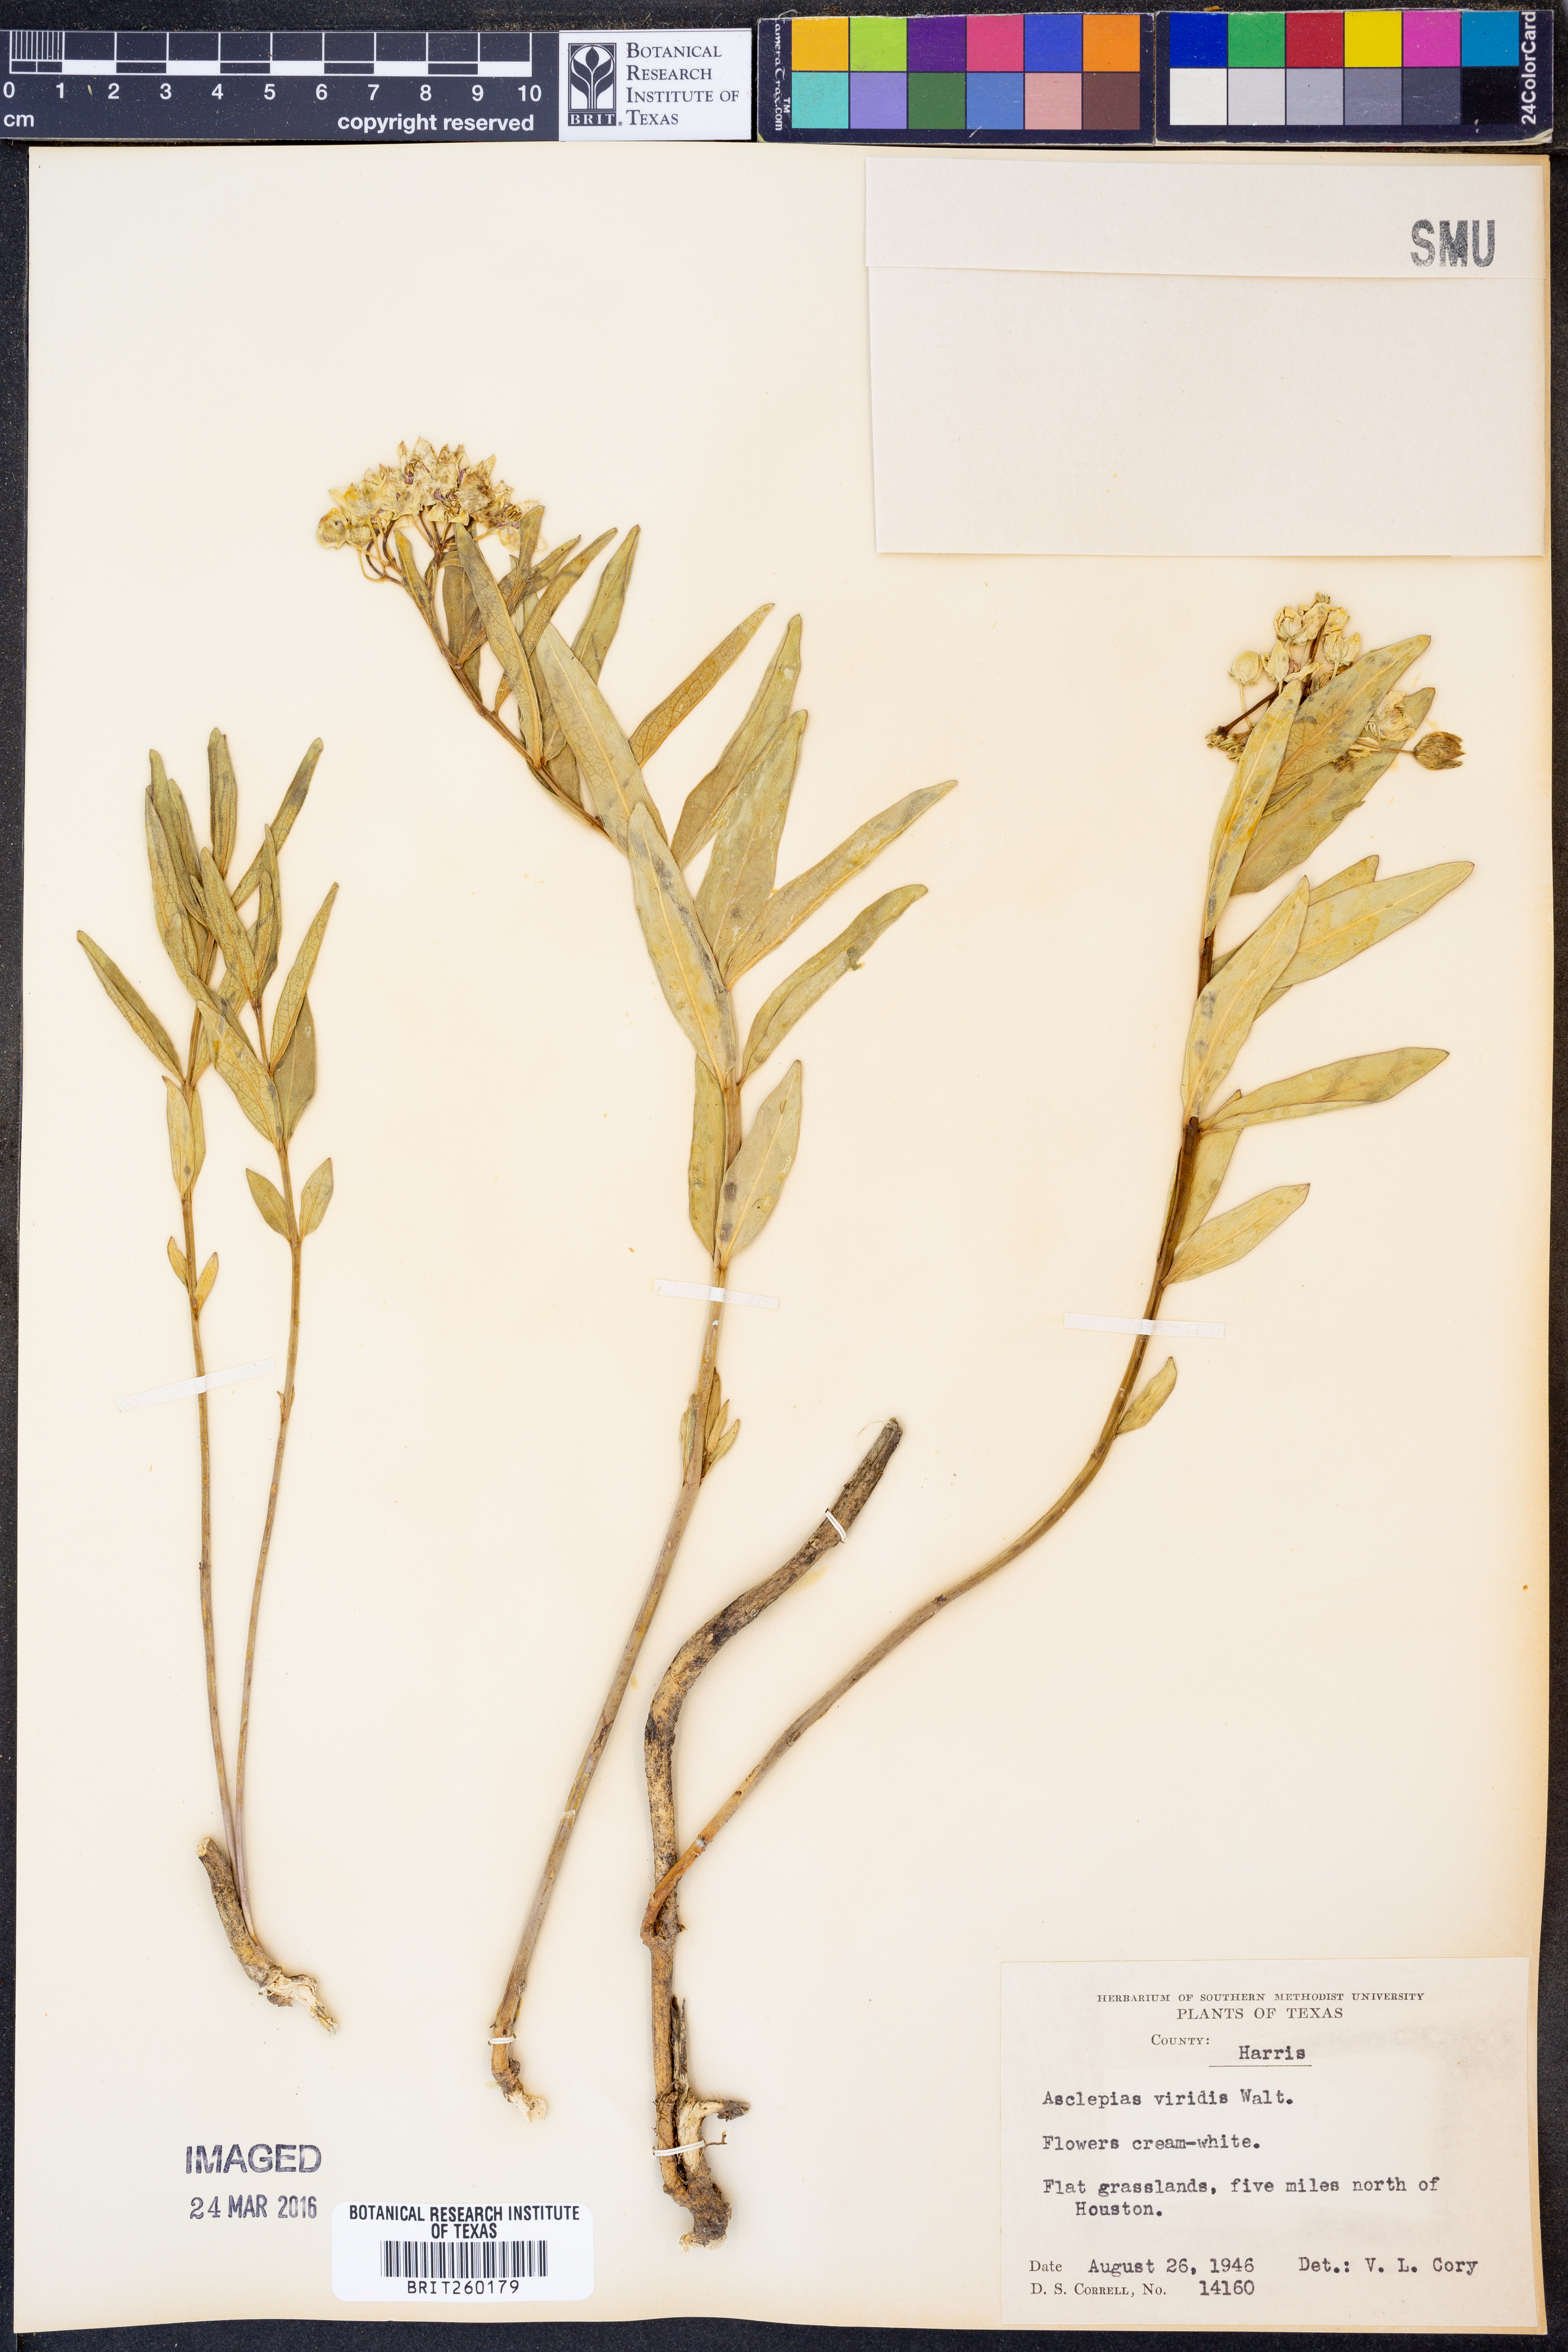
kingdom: Plantae
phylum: Tracheophyta
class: Magnoliopsida
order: Gentianales
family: Apocynaceae
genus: Asclepias
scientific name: Asclepias viridis
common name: Antelope-horns
